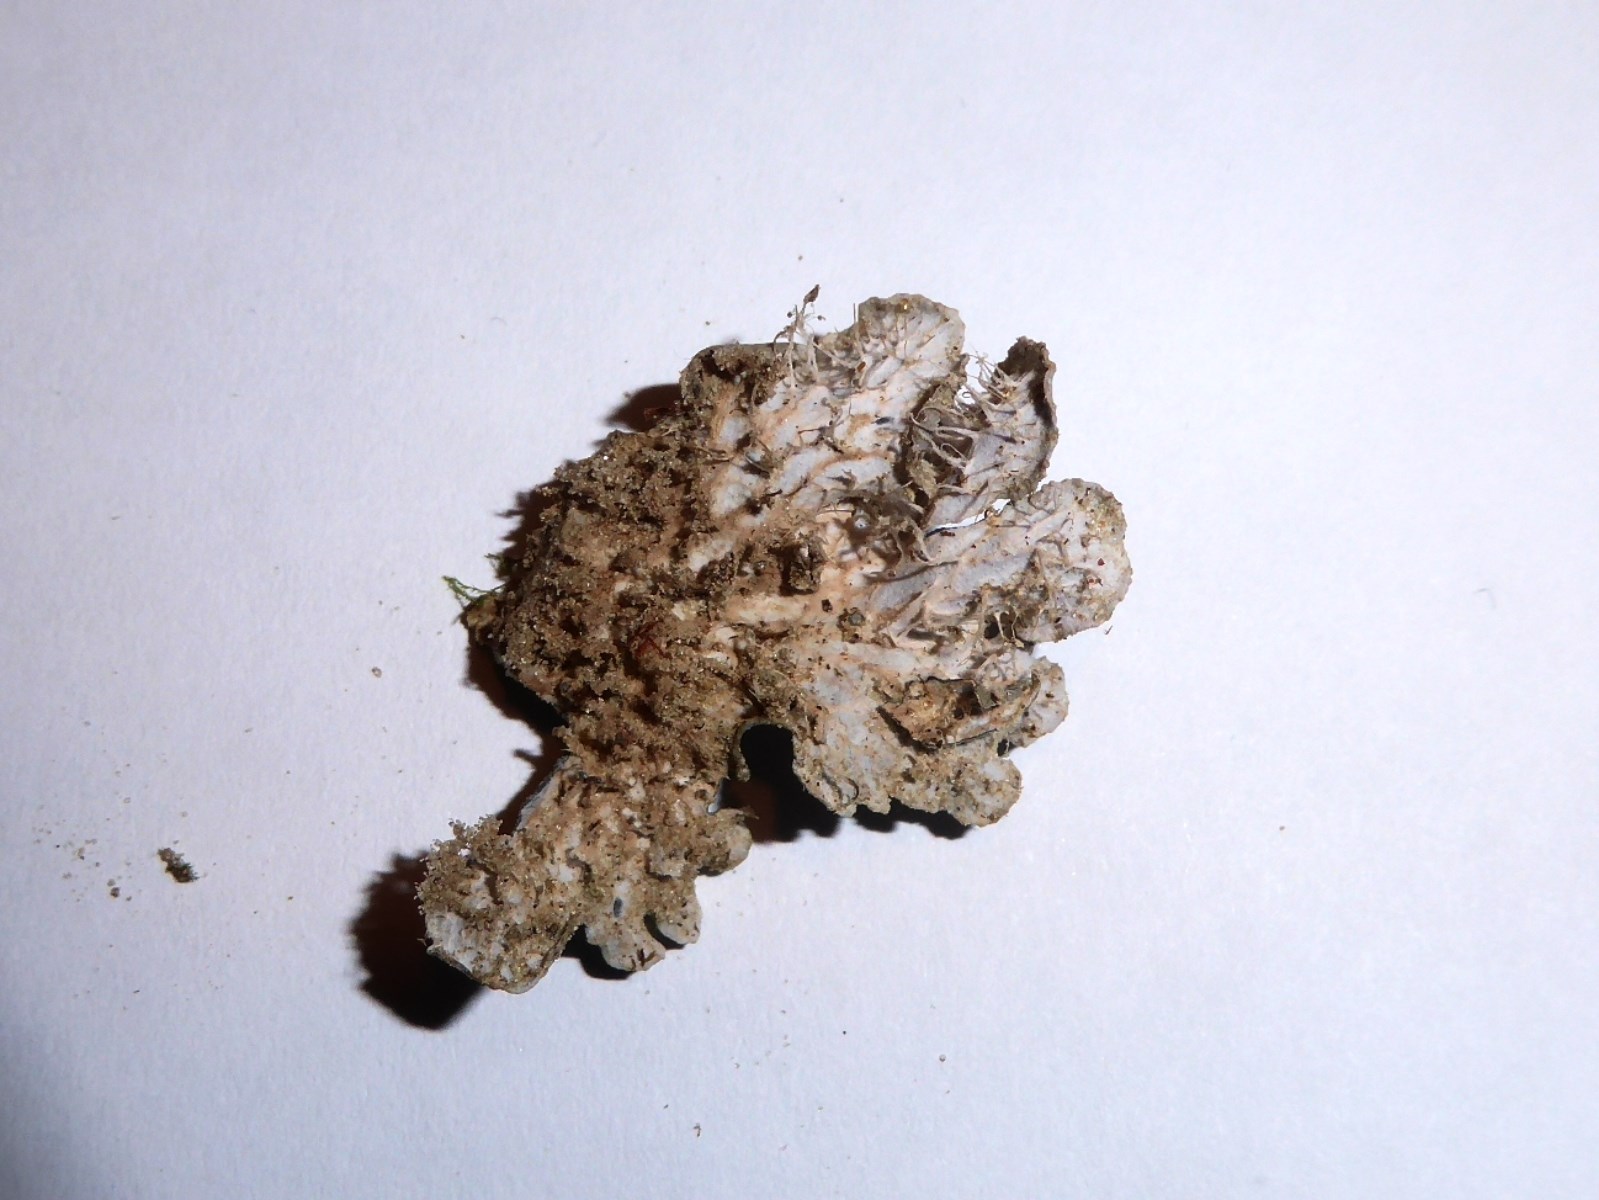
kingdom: Fungi
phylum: Ascomycota
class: Lecanoromycetes
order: Peltigerales
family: Peltigeraceae
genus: Peltigera
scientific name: Peltigera membranacea
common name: tynd skjoldlav
